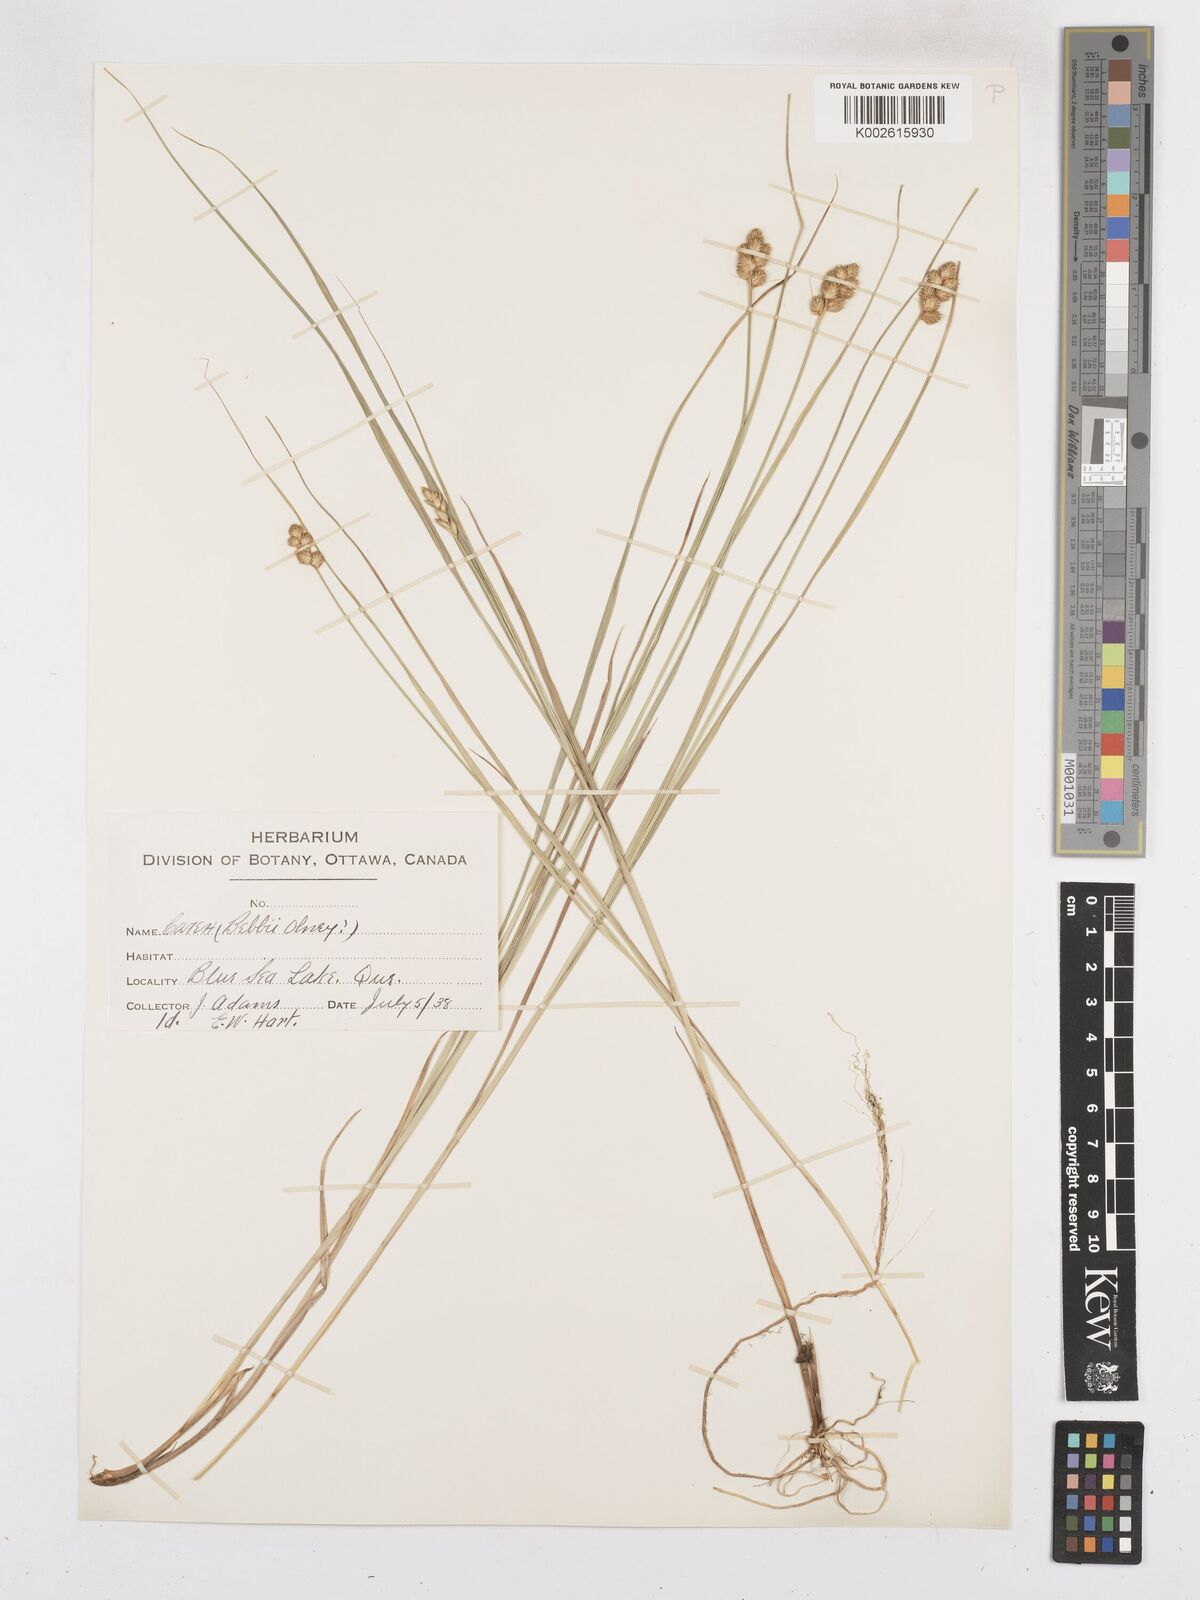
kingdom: Plantae
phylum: Tracheophyta
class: Liliopsida
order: Poales
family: Cyperaceae
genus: Carex
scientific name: Carex bebbii
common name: Bebb's sedge
